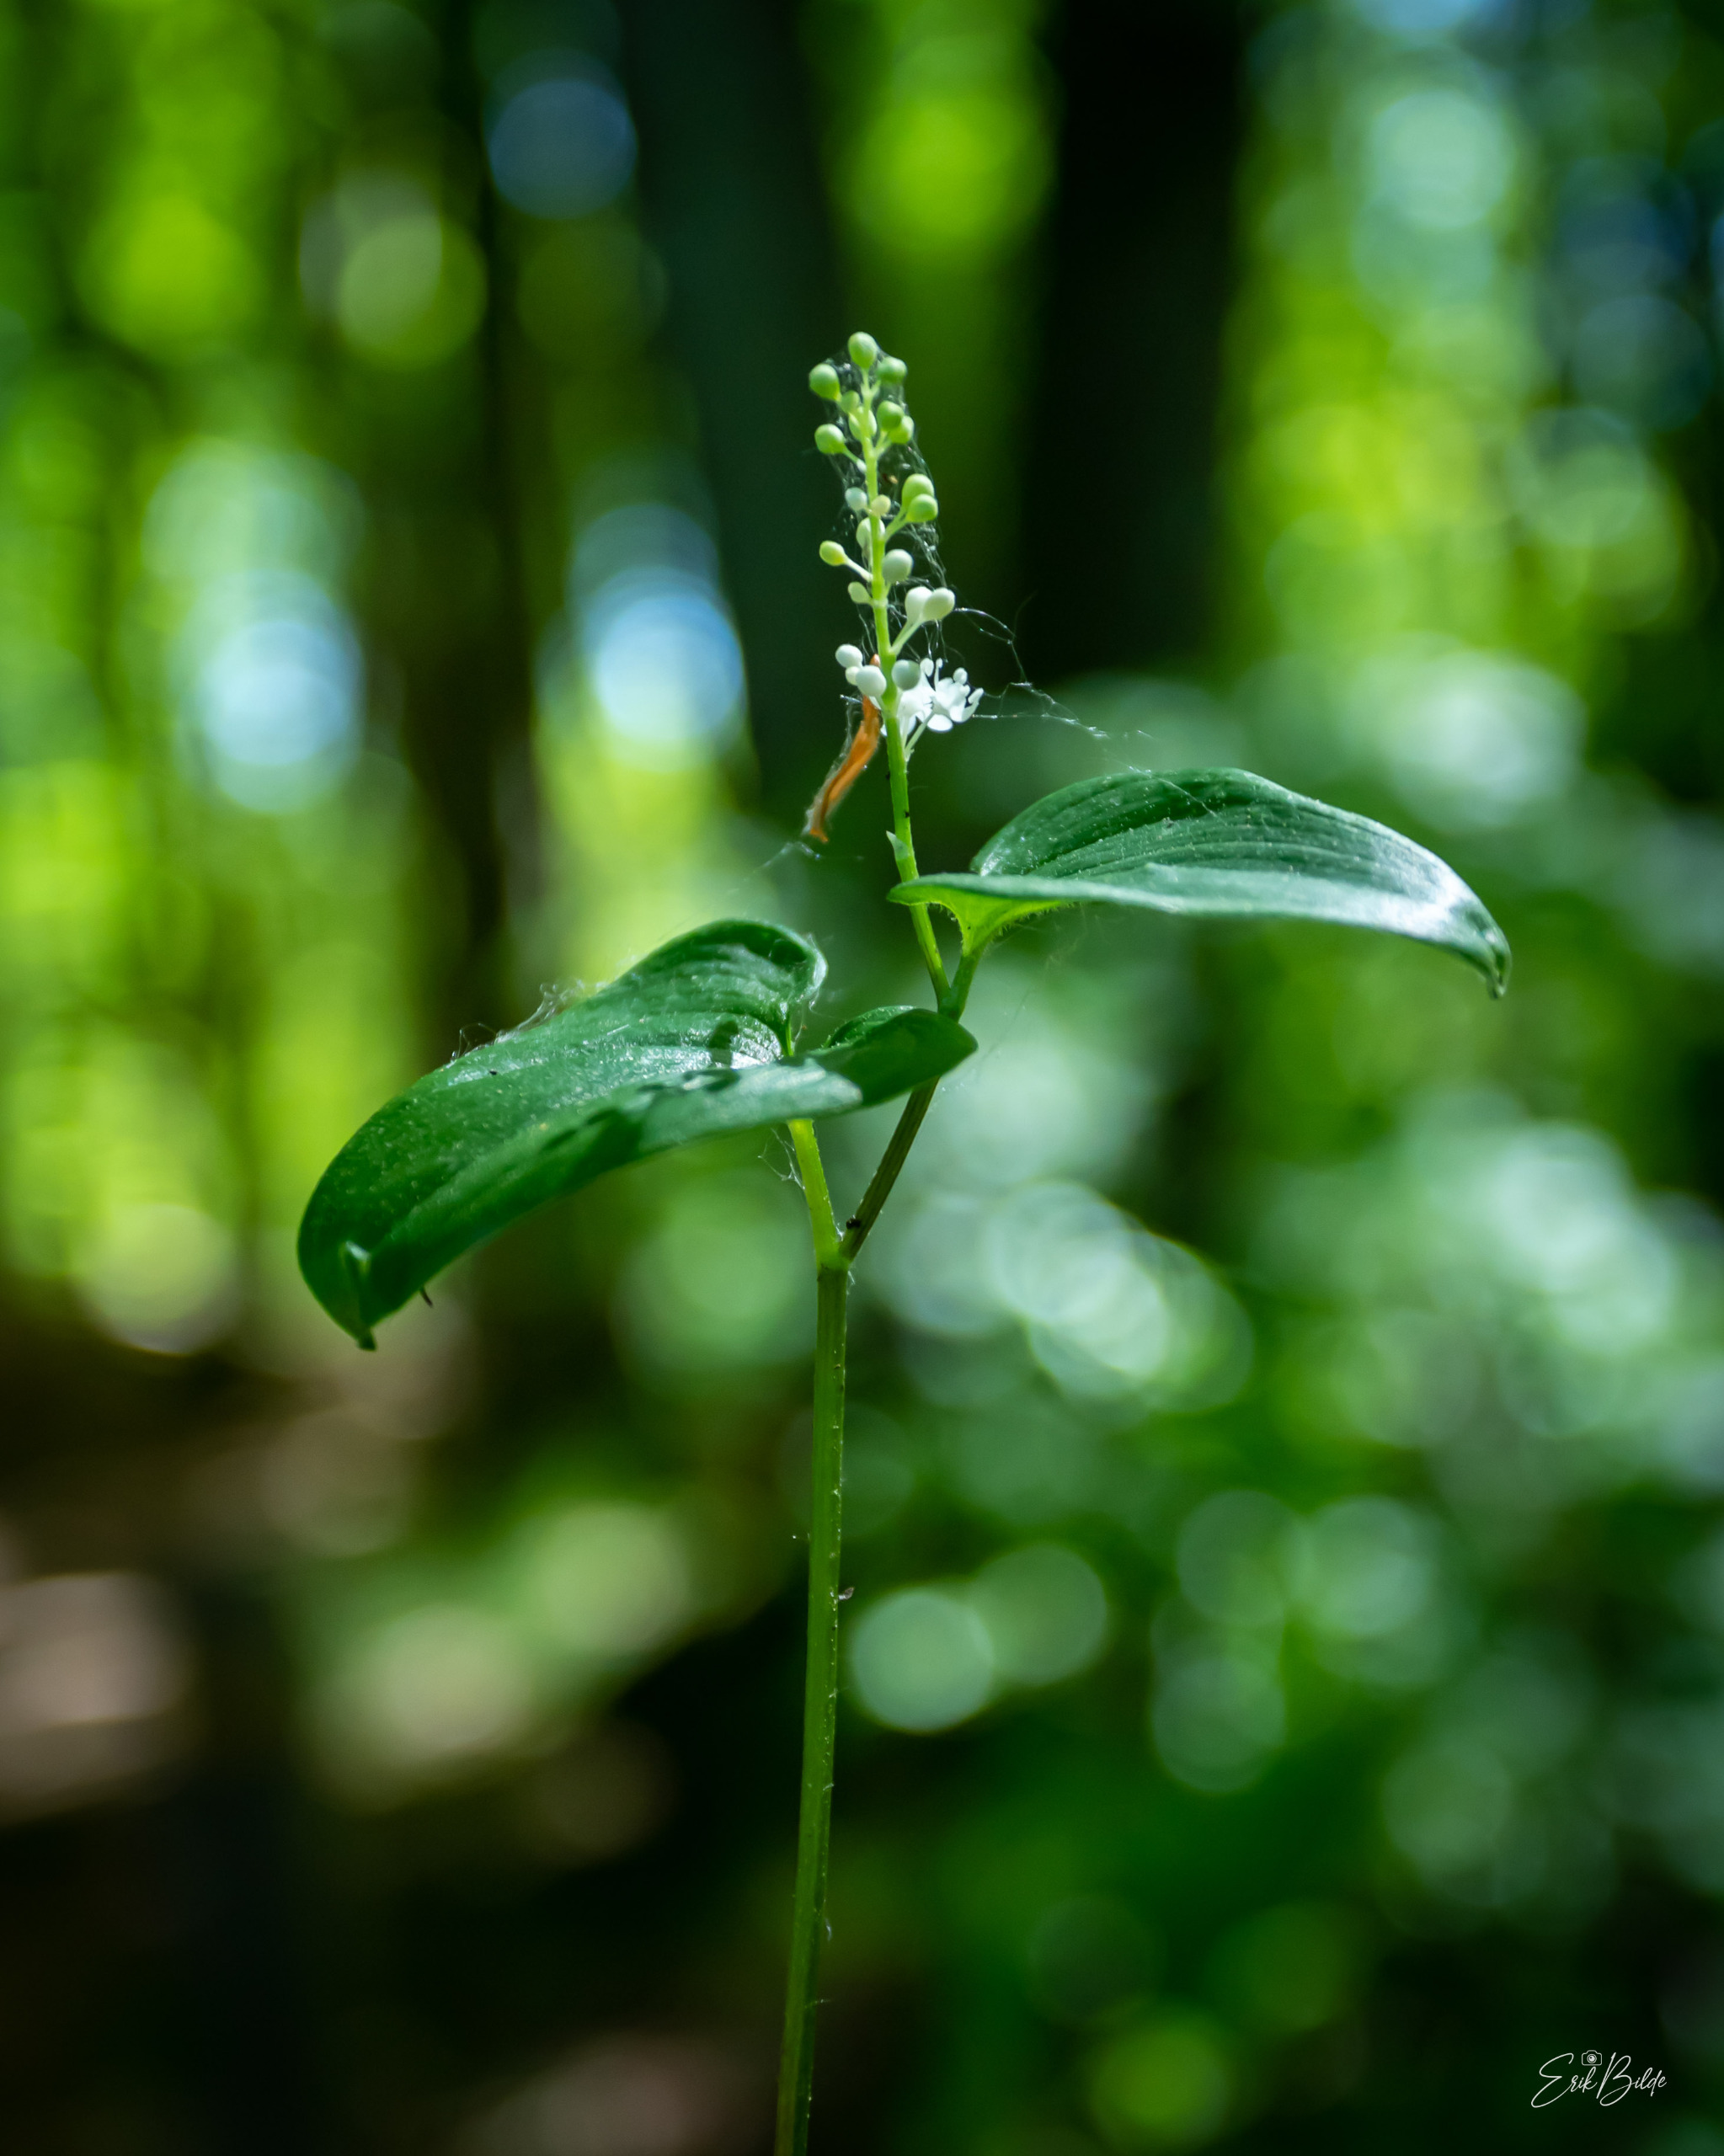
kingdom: Plantae
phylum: Tracheophyta
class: Liliopsida
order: Asparagales
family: Asparagaceae
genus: Maianthemum
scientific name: Maianthemum bifolium
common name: Majblomst
